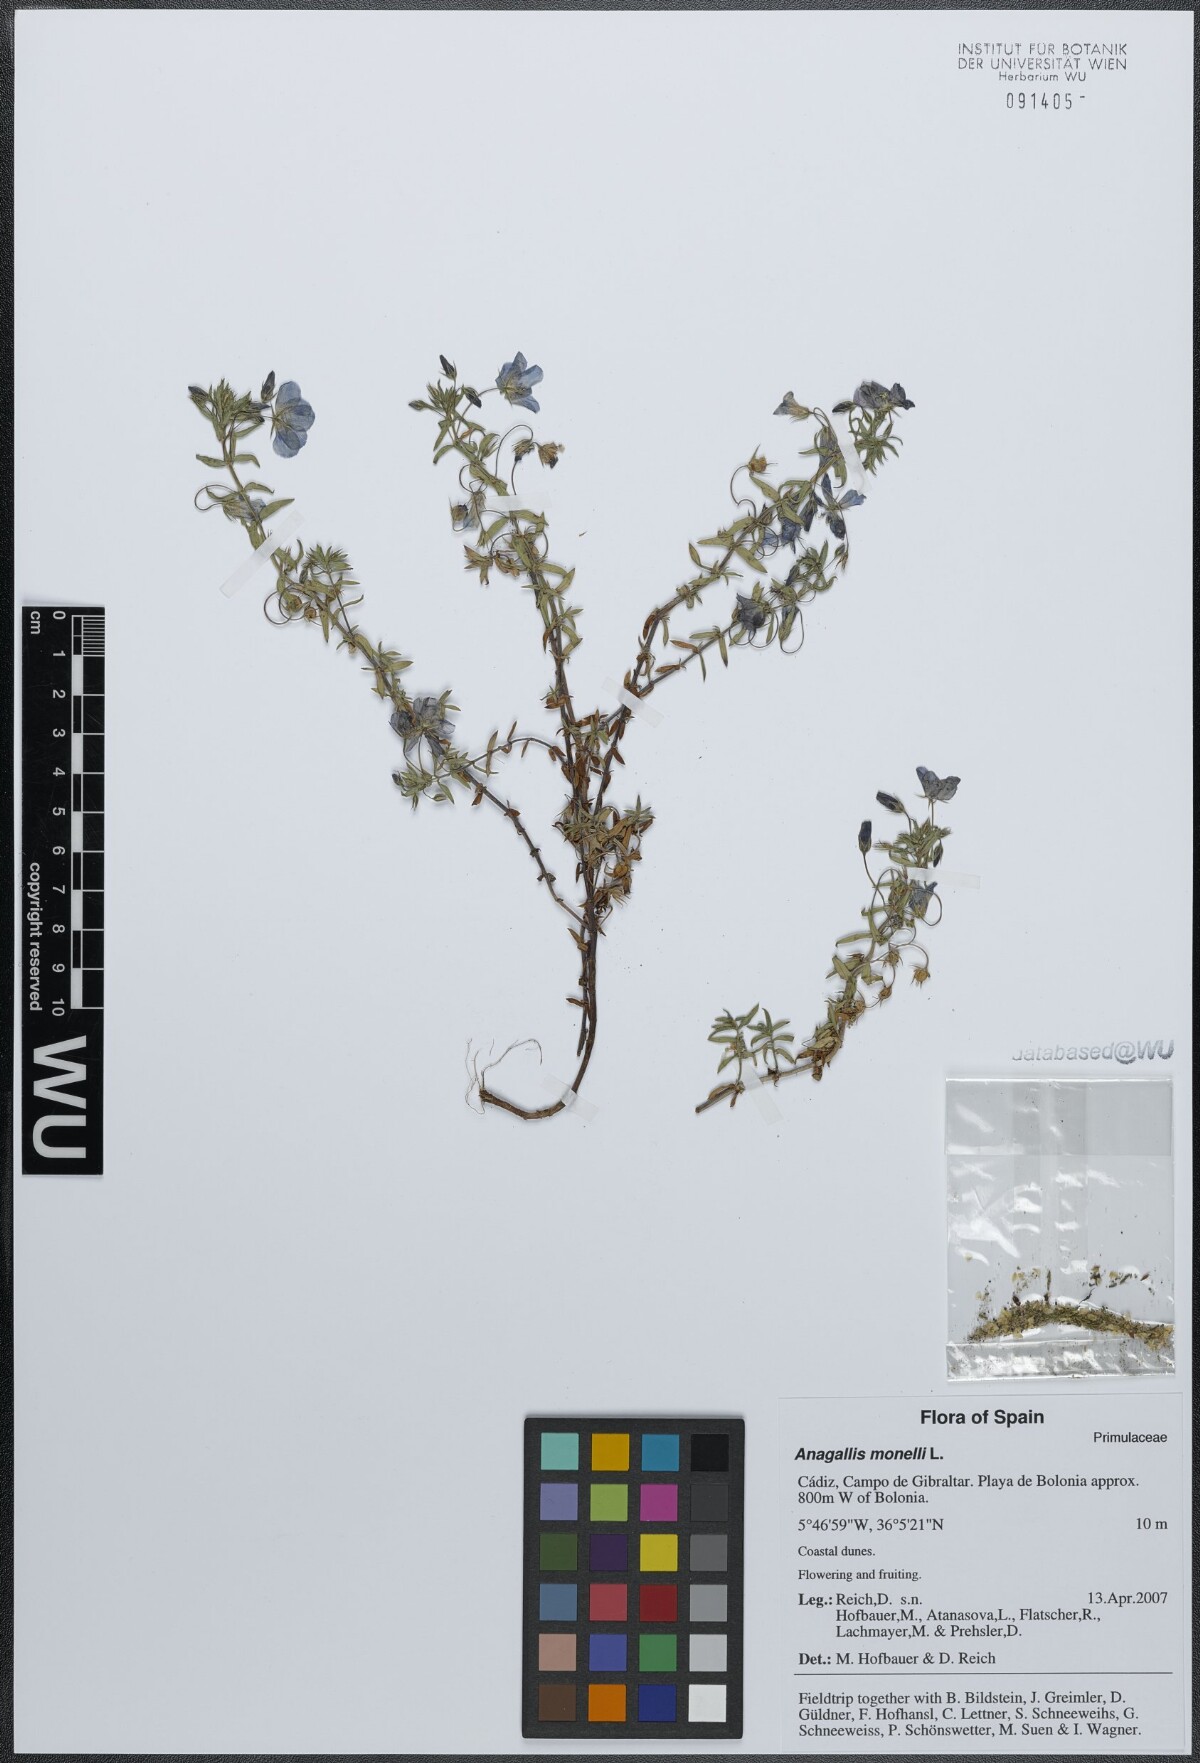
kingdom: Plantae
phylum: Tracheophyta
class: Magnoliopsida
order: Ericales
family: Primulaceae
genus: Lysimachia
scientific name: Lysimachia monelli
